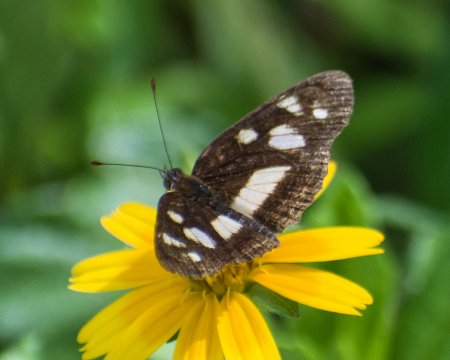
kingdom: Animalia
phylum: Arthropoda
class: Insecta
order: Lepidoptera
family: Nymphalidae
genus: Eresia
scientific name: Eresia clio
